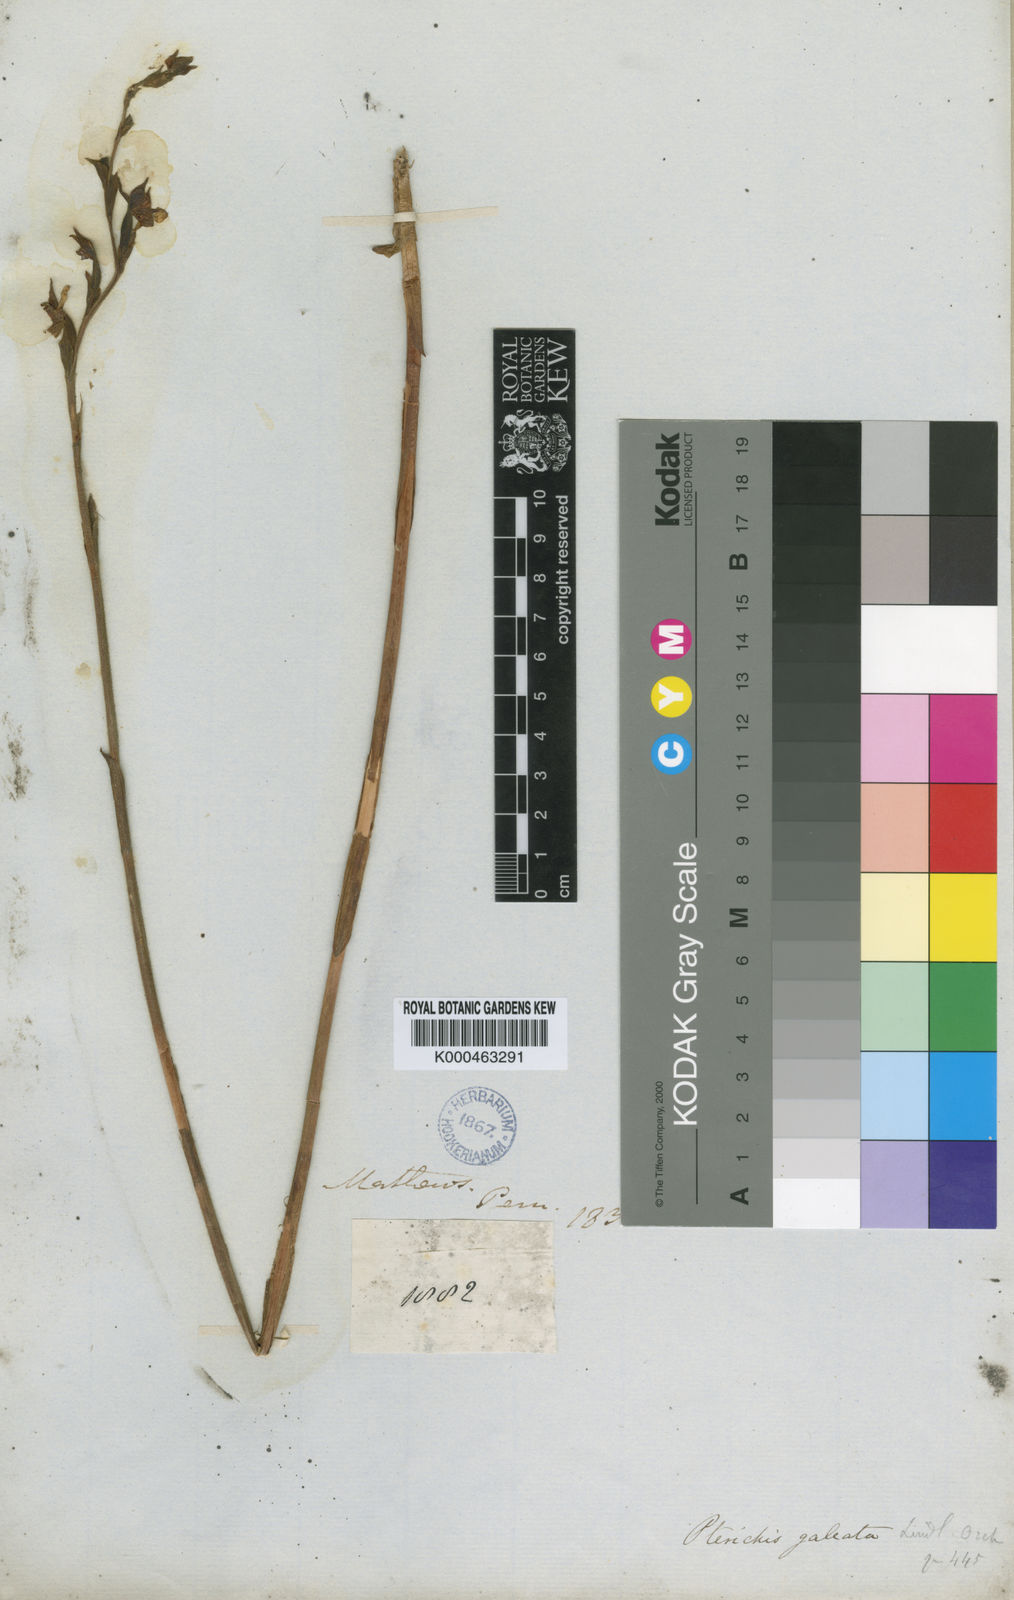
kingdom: Plantae
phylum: Tracheophyta
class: Liliopsida
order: Asparagales
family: Orchidaceae
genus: Pterichis
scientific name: Pterichis galeata
